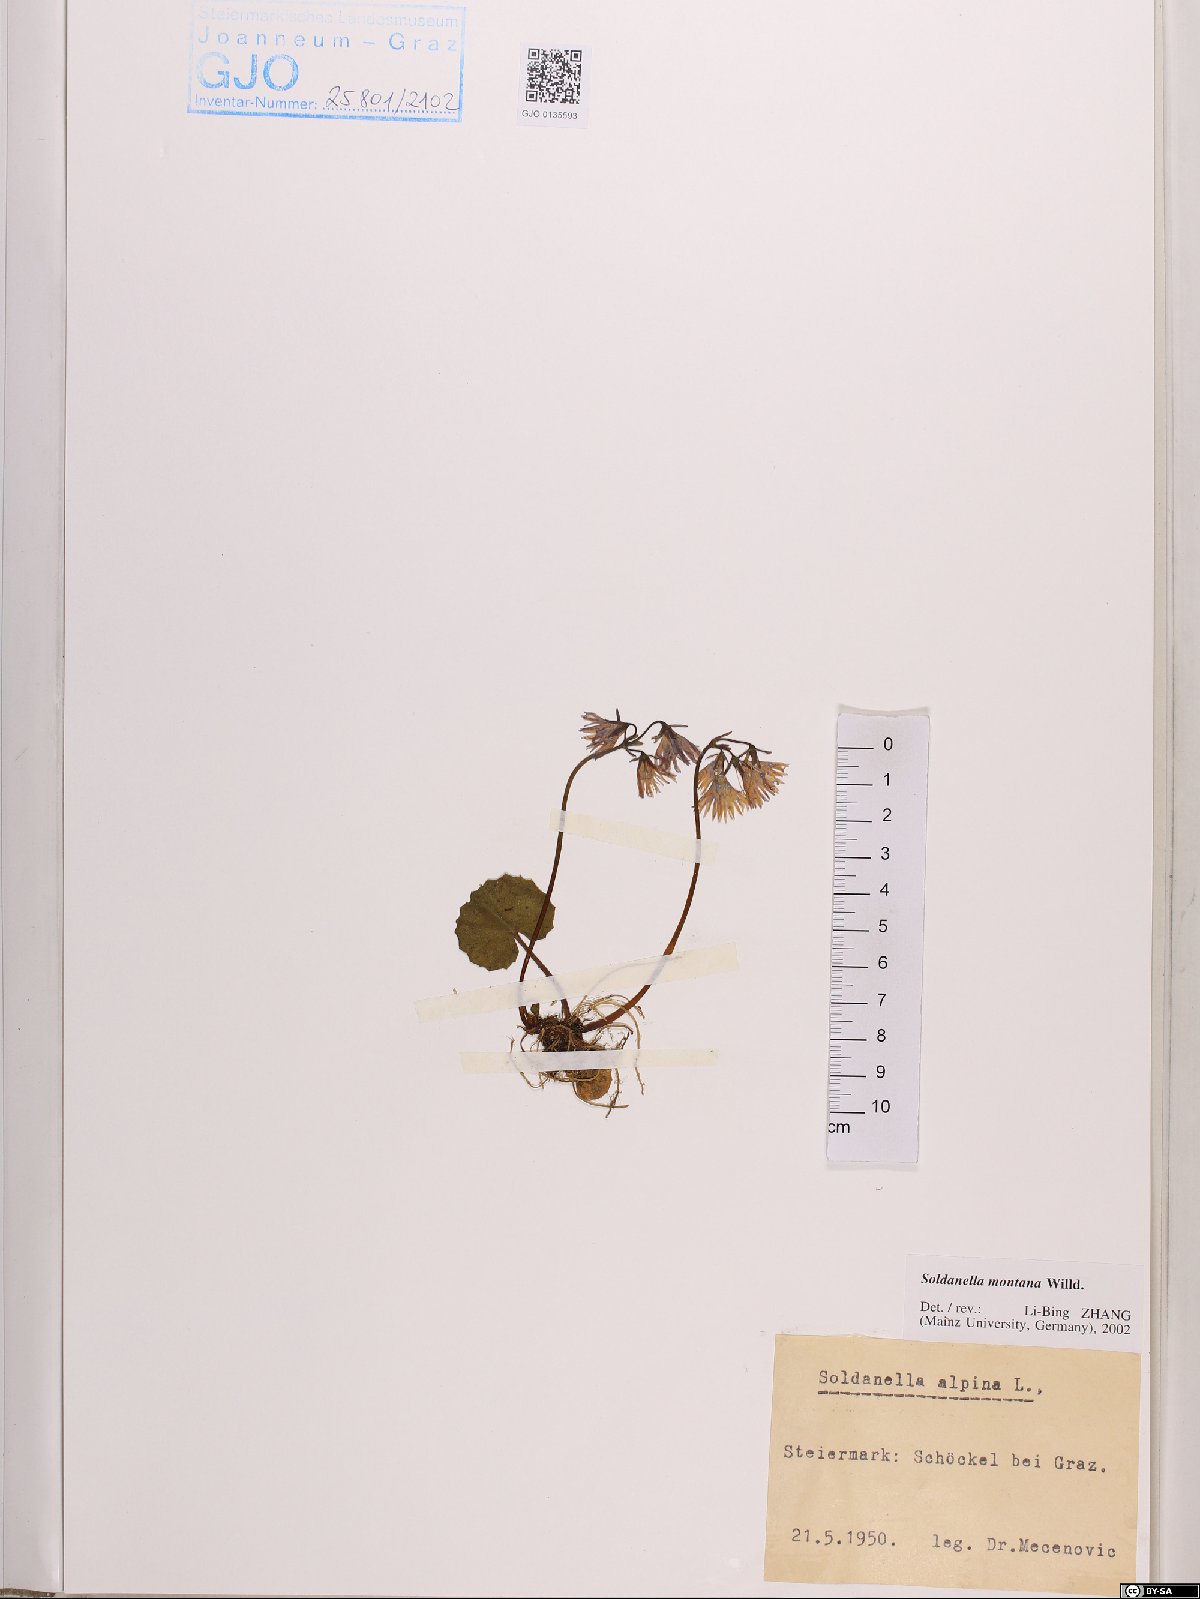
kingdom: Plantae
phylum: Tracheophyta
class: Magnoliopsida
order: Ericales
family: Primulaceae
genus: Soldanella
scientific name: Soldanella montana
